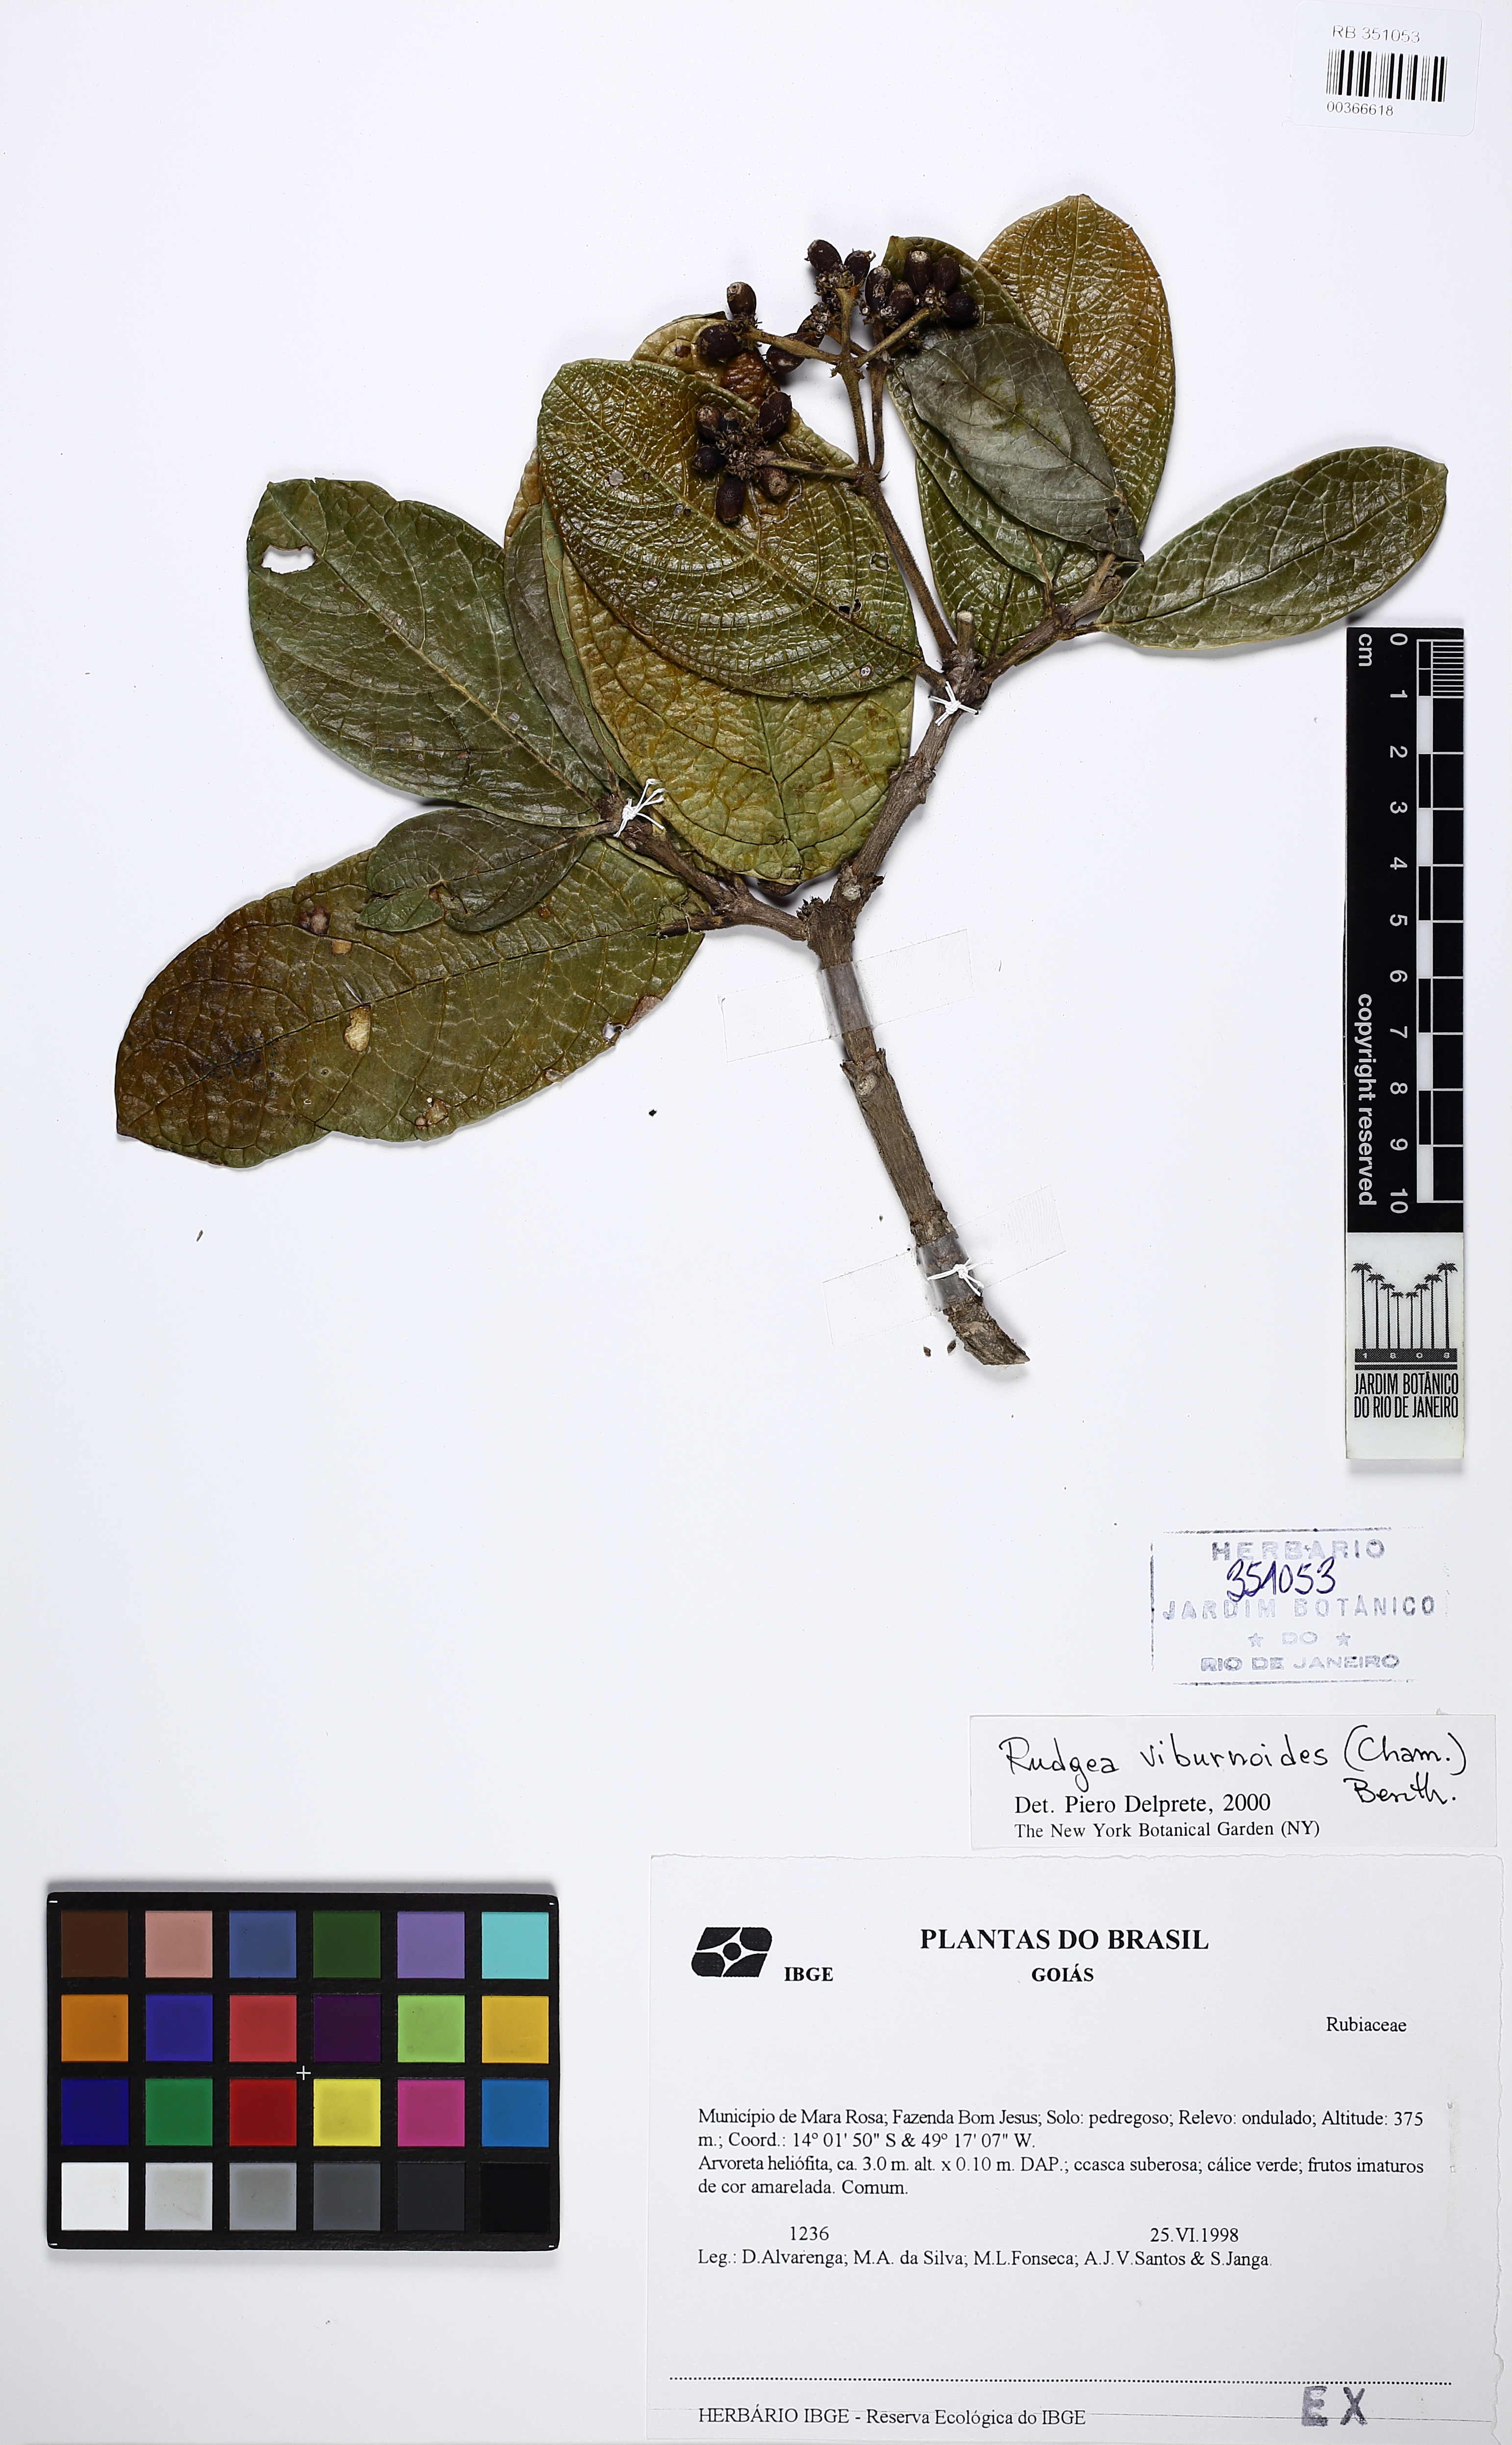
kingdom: Plantae
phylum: Tracheophyta
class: Magnoliopsida
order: Gentianales
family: Rubiaceae
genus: Rudgea
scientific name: Rudgea viburnoides
